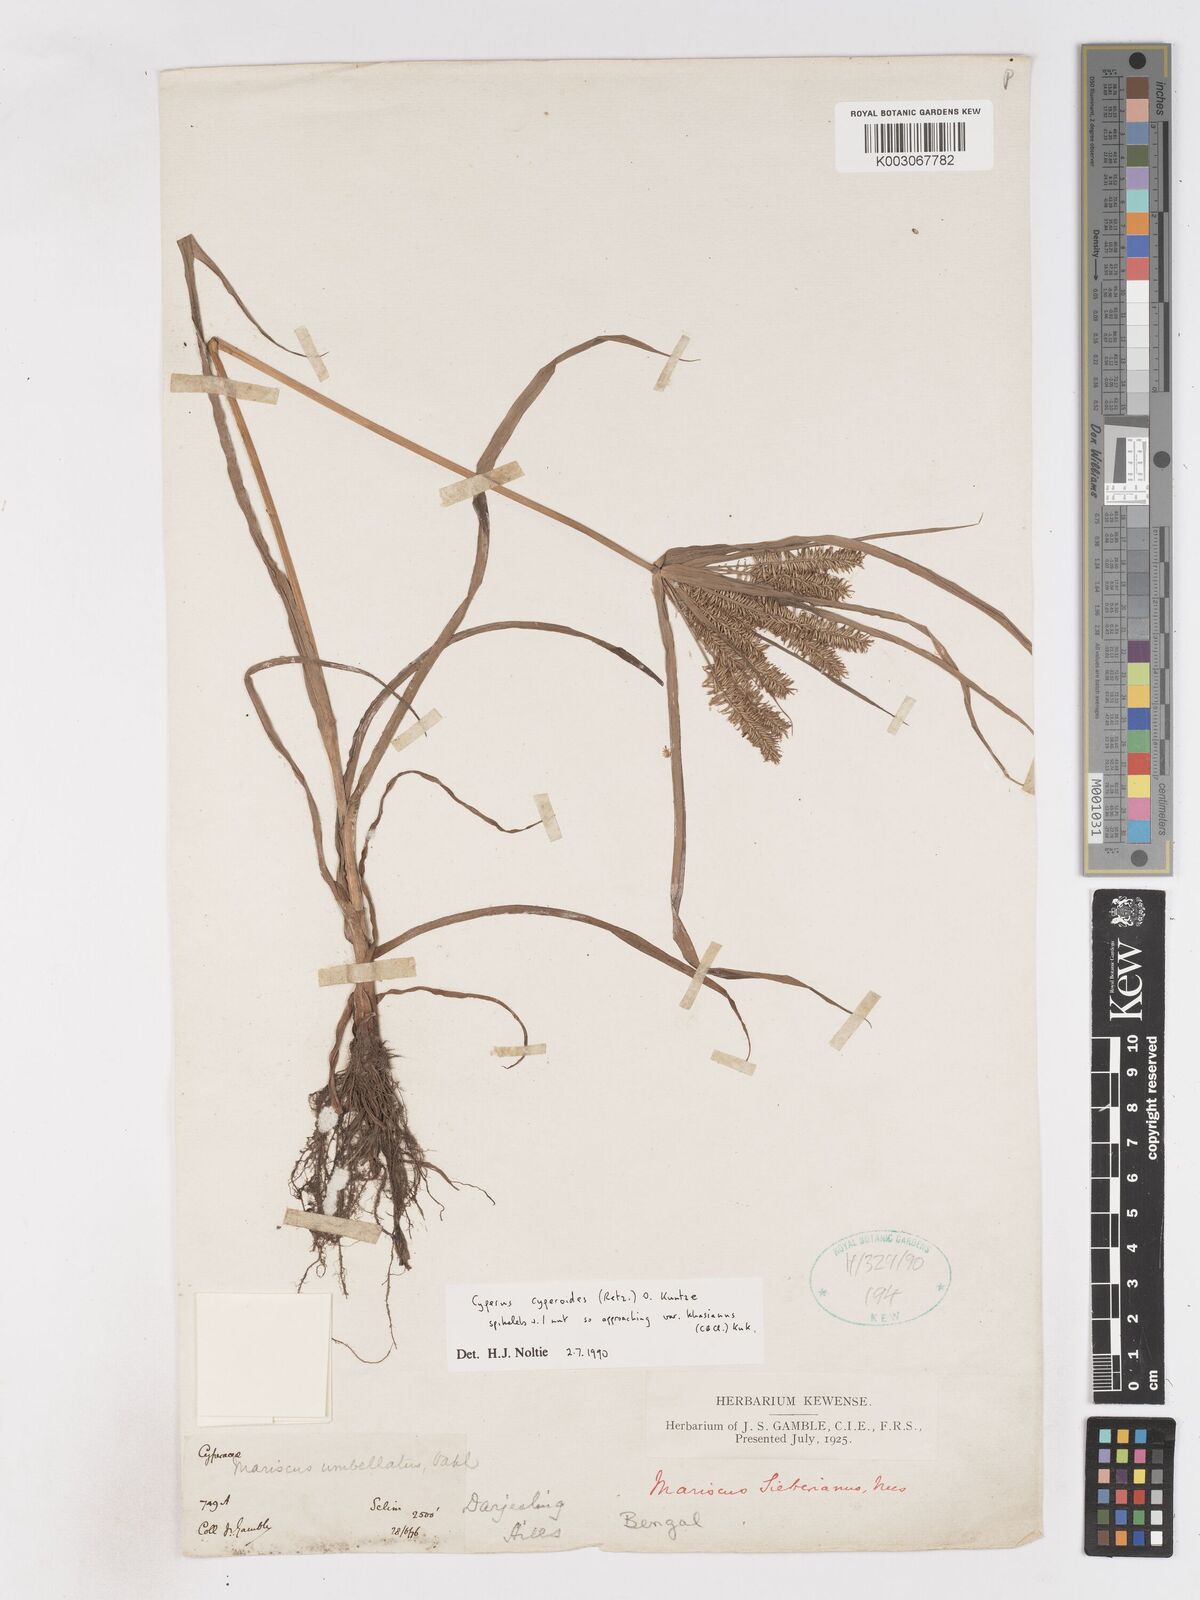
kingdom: Plantae
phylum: Tracheophyta
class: Liliopsida
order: Poales
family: Cyperaceae
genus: Cyperus
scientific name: Cyperus cyperoides
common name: Pacific island flat sedge
